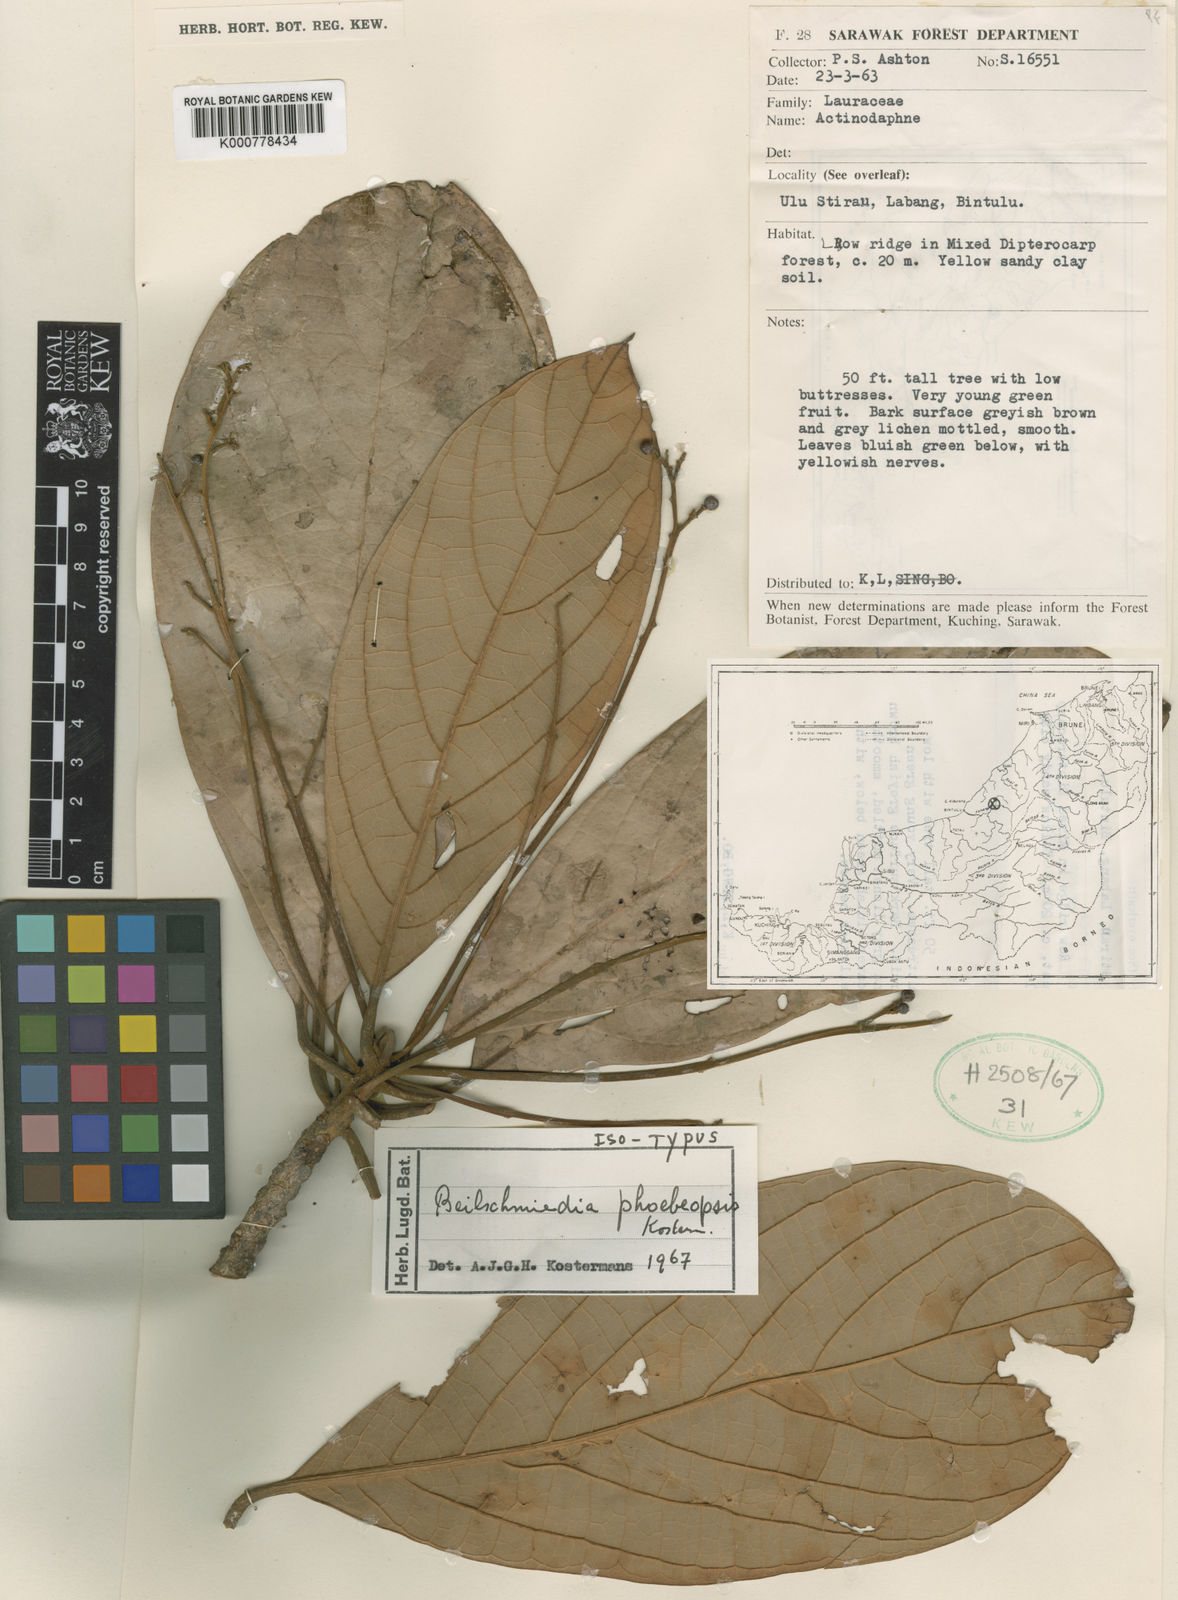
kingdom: Plantae
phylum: Tracheophyta
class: Magnoliopsida
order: Laurales
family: Lauraceae
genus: Beilschmiedia
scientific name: Beilschmiedia phoebeopsis
